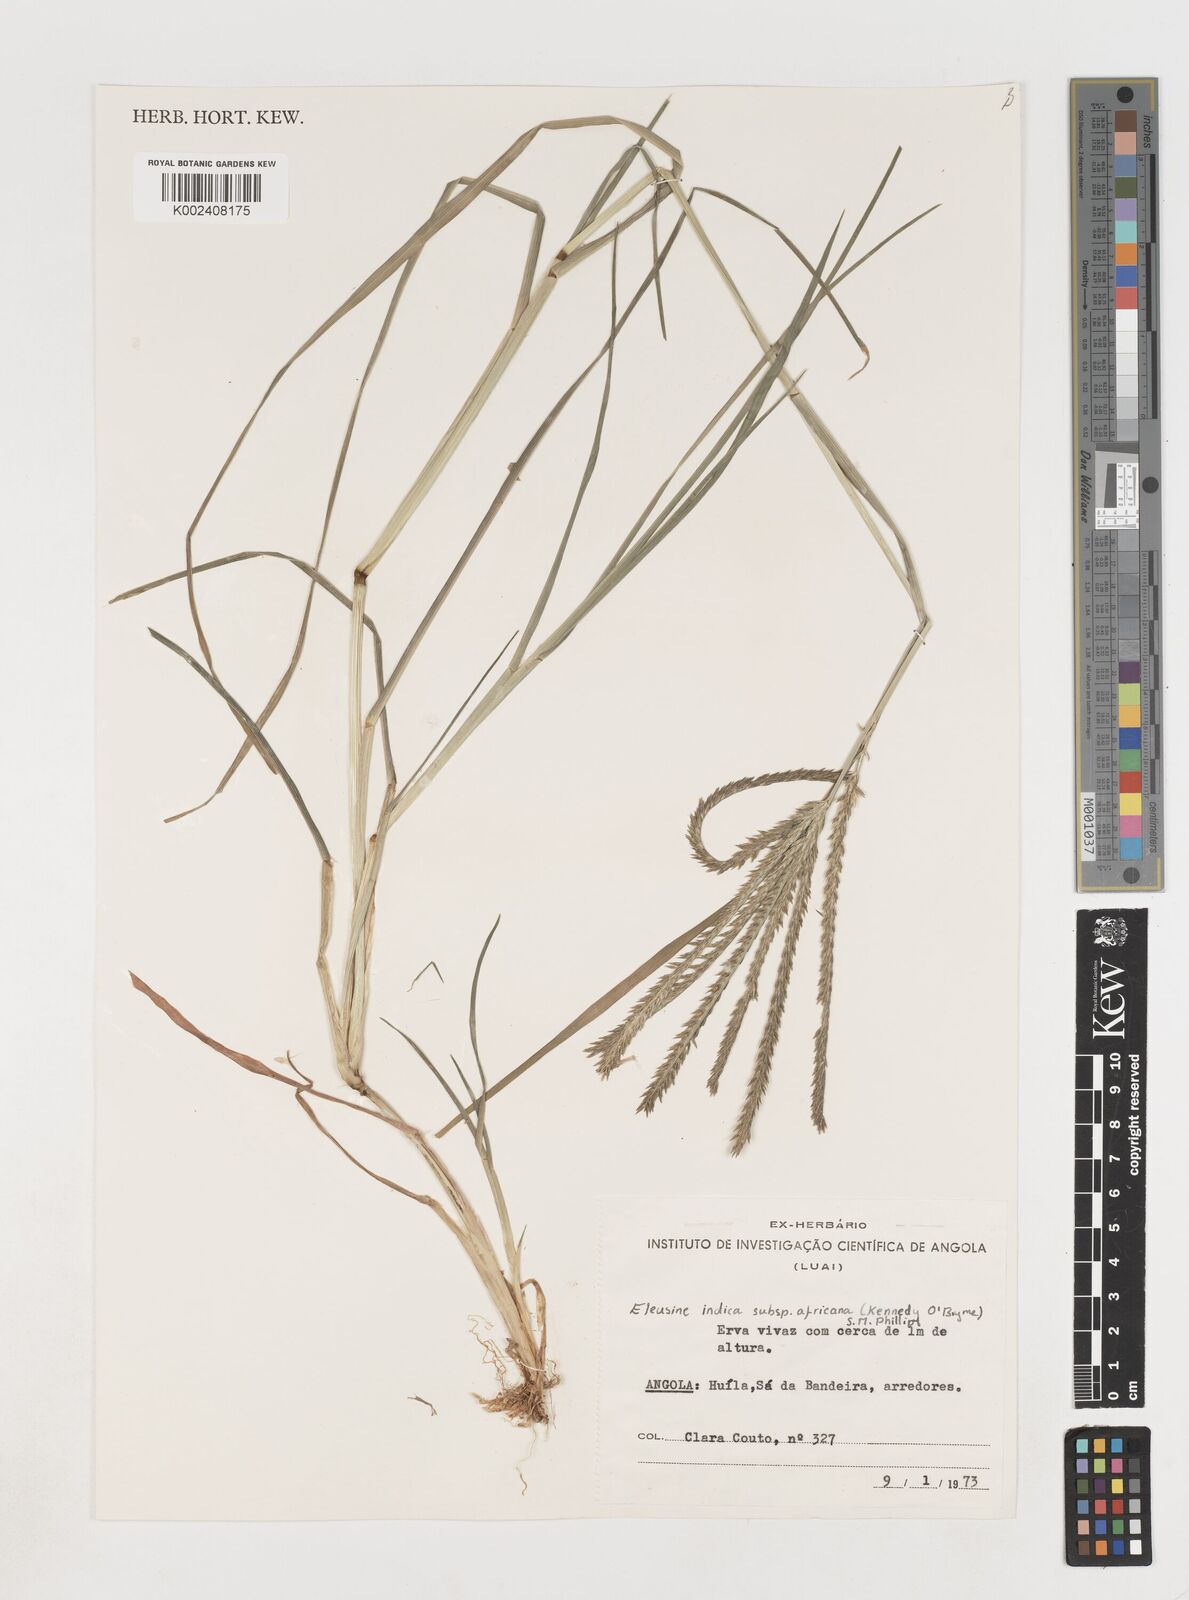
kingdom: Plantae
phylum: Tracheophyta
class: Liliopsida
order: Poales
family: Poaceae
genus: Eleusine
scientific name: Eleusine africana
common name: Wild african finger millet
